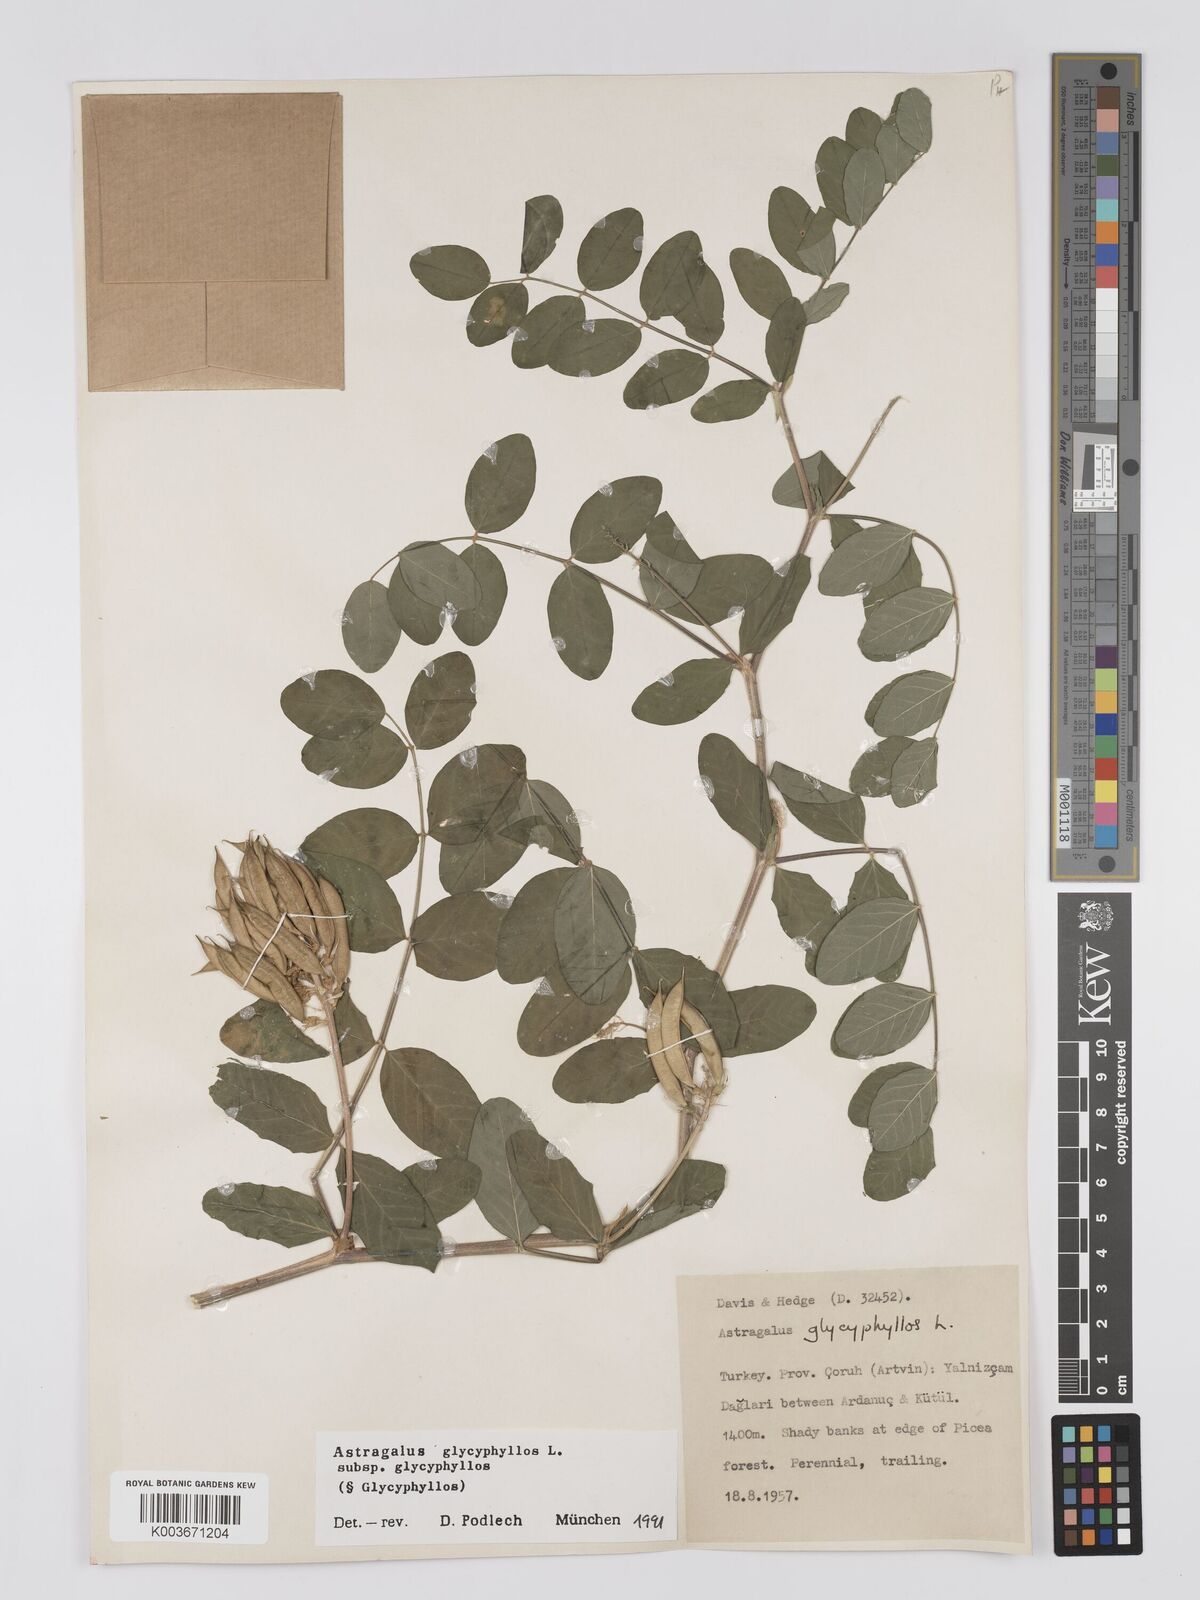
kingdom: Plantae
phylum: Tracheophyta
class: Magnoliopsida
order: Fabales
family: Fabaceae
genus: Astragalus
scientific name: Astragalus glycyphyllos
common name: Wild liquorice
